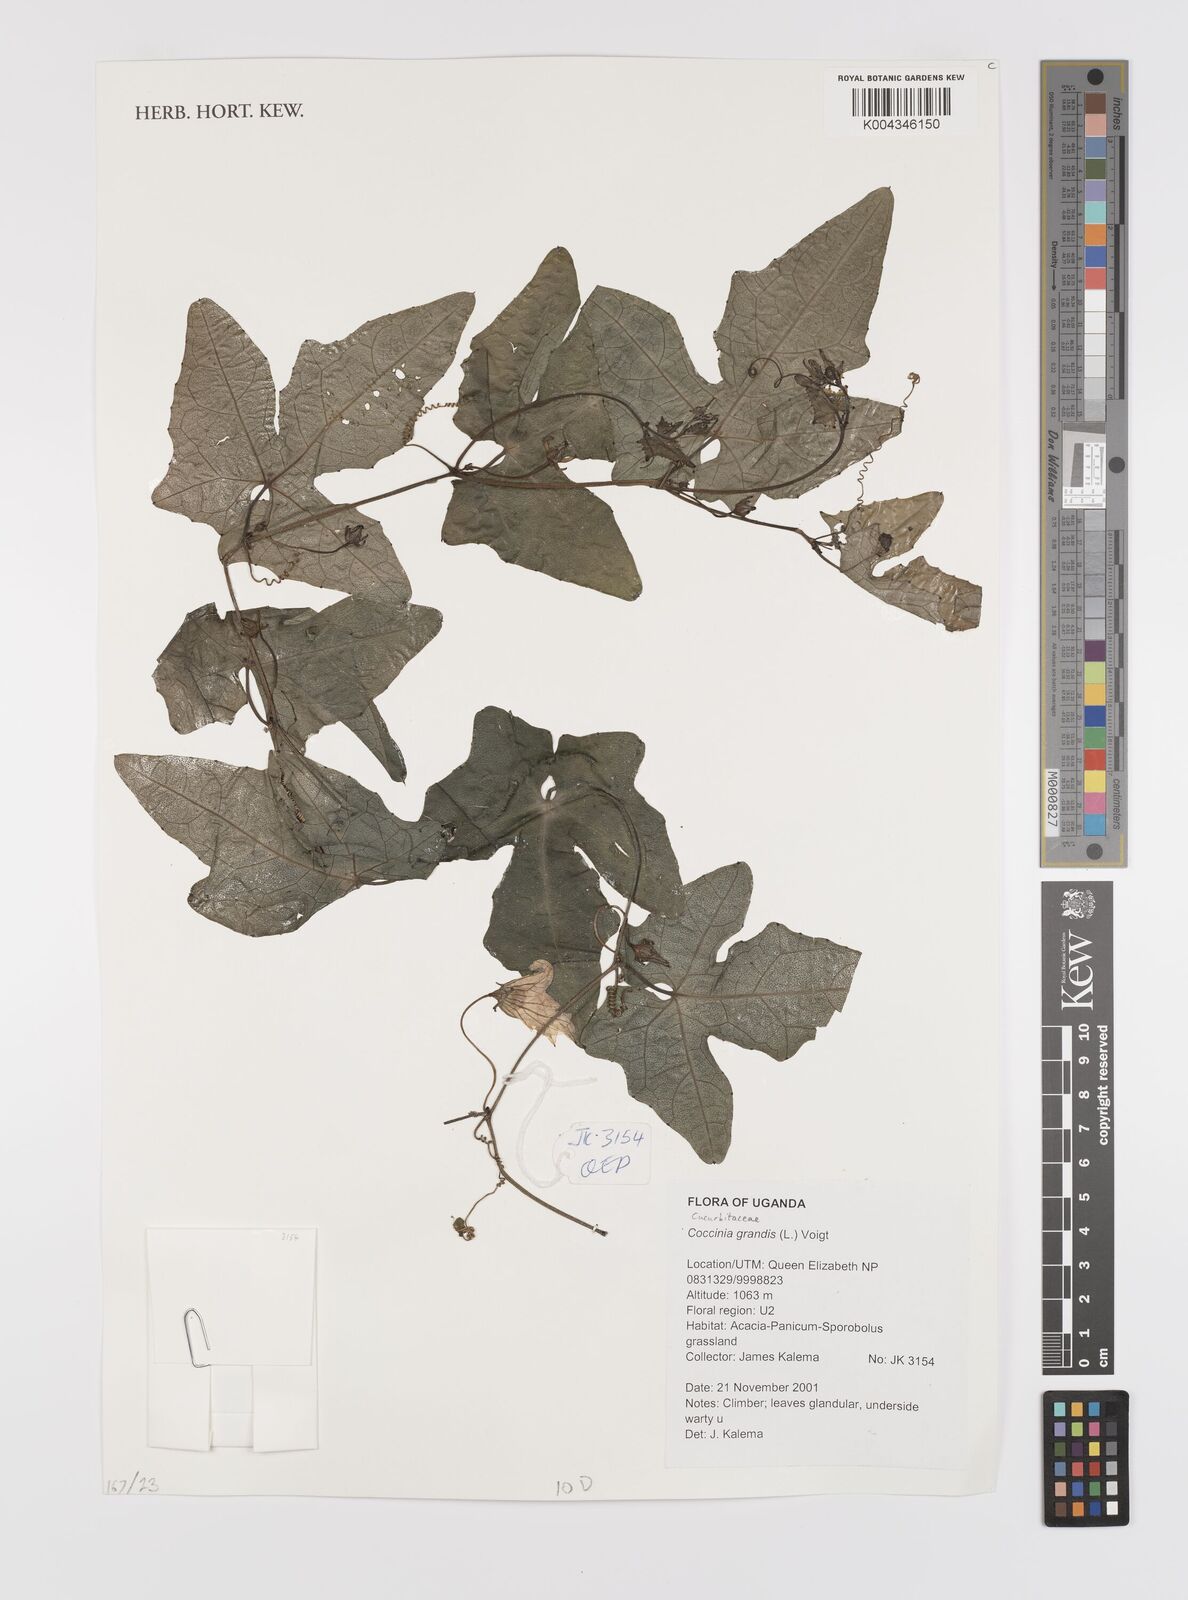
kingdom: Plantae
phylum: Tracheophyta
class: Magnoliopsida
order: Cucurbitales
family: Cucurbitaceae
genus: Coccinia
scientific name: Coccinia grandis
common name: Ivy gourd
